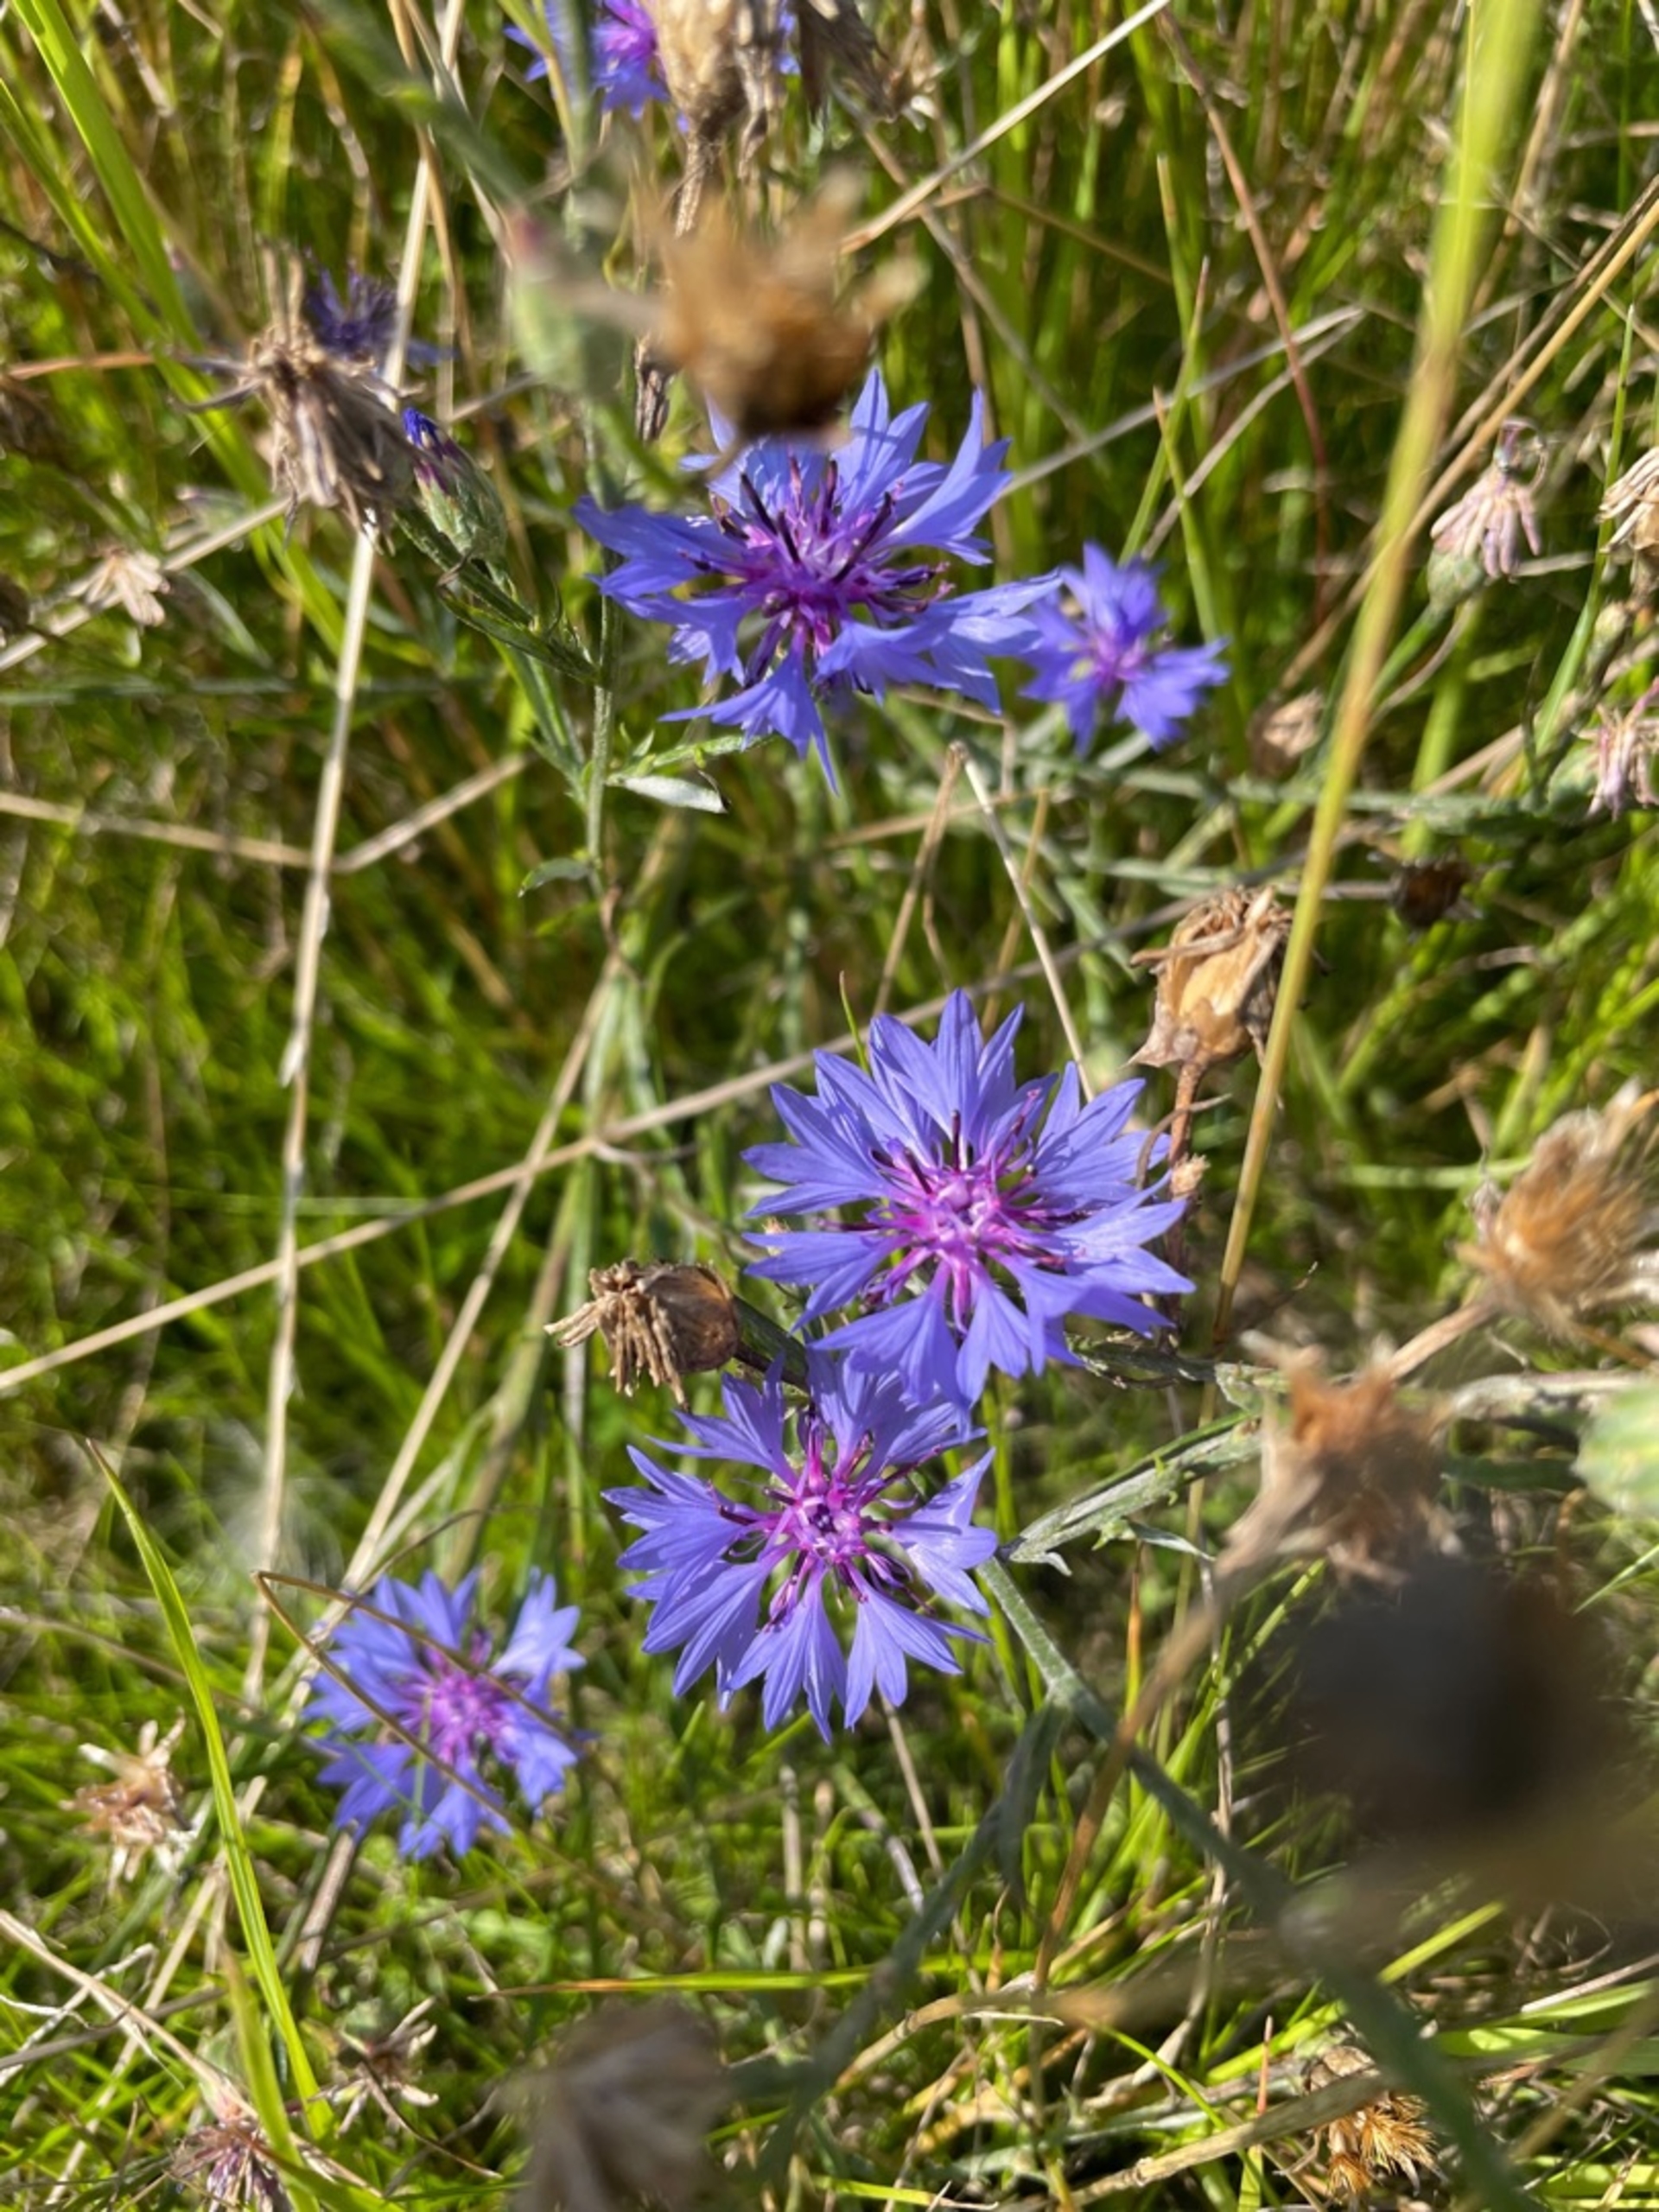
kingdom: Plantae
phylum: Tracheophyta
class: Magnoliopsida
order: Asterales
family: Asteraceae
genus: Centaurea
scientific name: Centaurea cyanus
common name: Kornblomst
